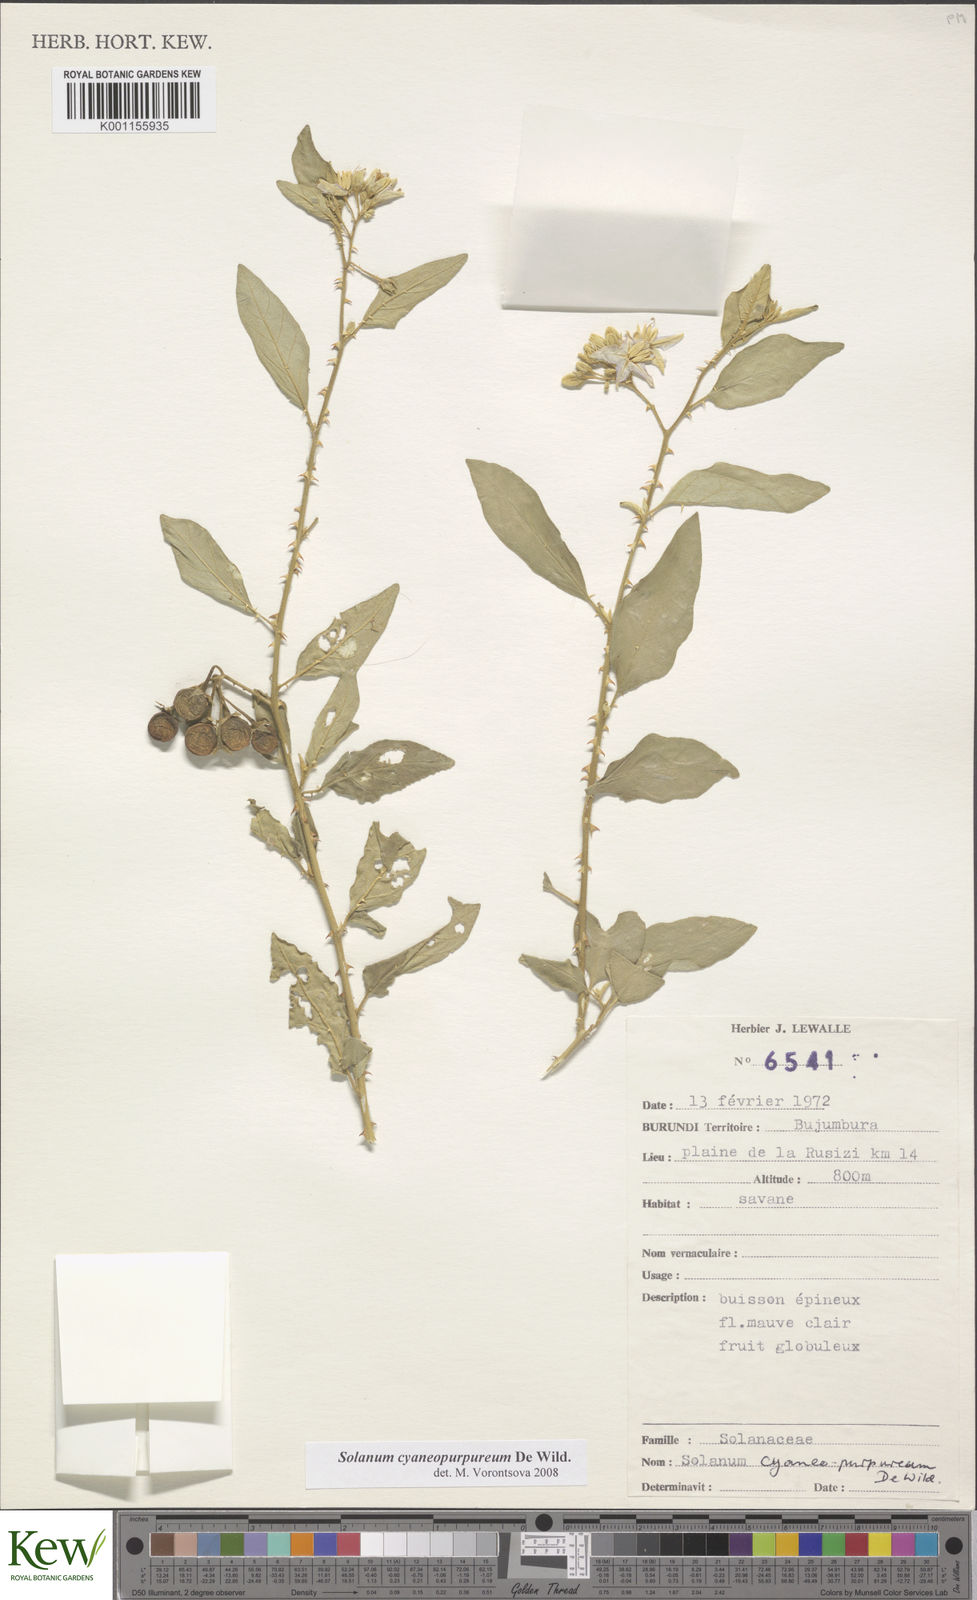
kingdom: Plantae
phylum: Tracheophyta
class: Magnoliopsida
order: Solanales
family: Solanaceae
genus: Solanum
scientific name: Solanum cyaneopurpureum
